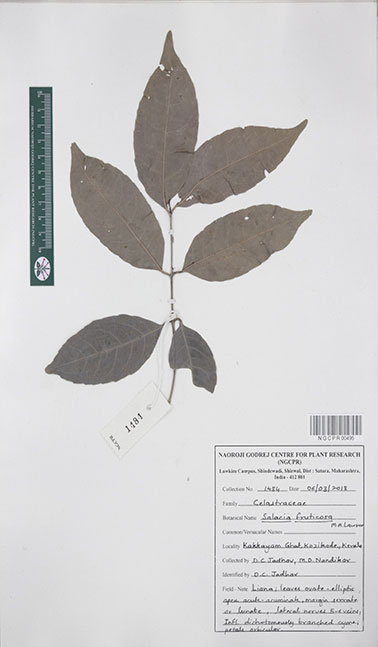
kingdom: Plantae
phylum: Tracheophyta
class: Magnoliopsida
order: Celastrales
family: Celastraceae
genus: Salacia
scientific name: Salacia fruticosa
